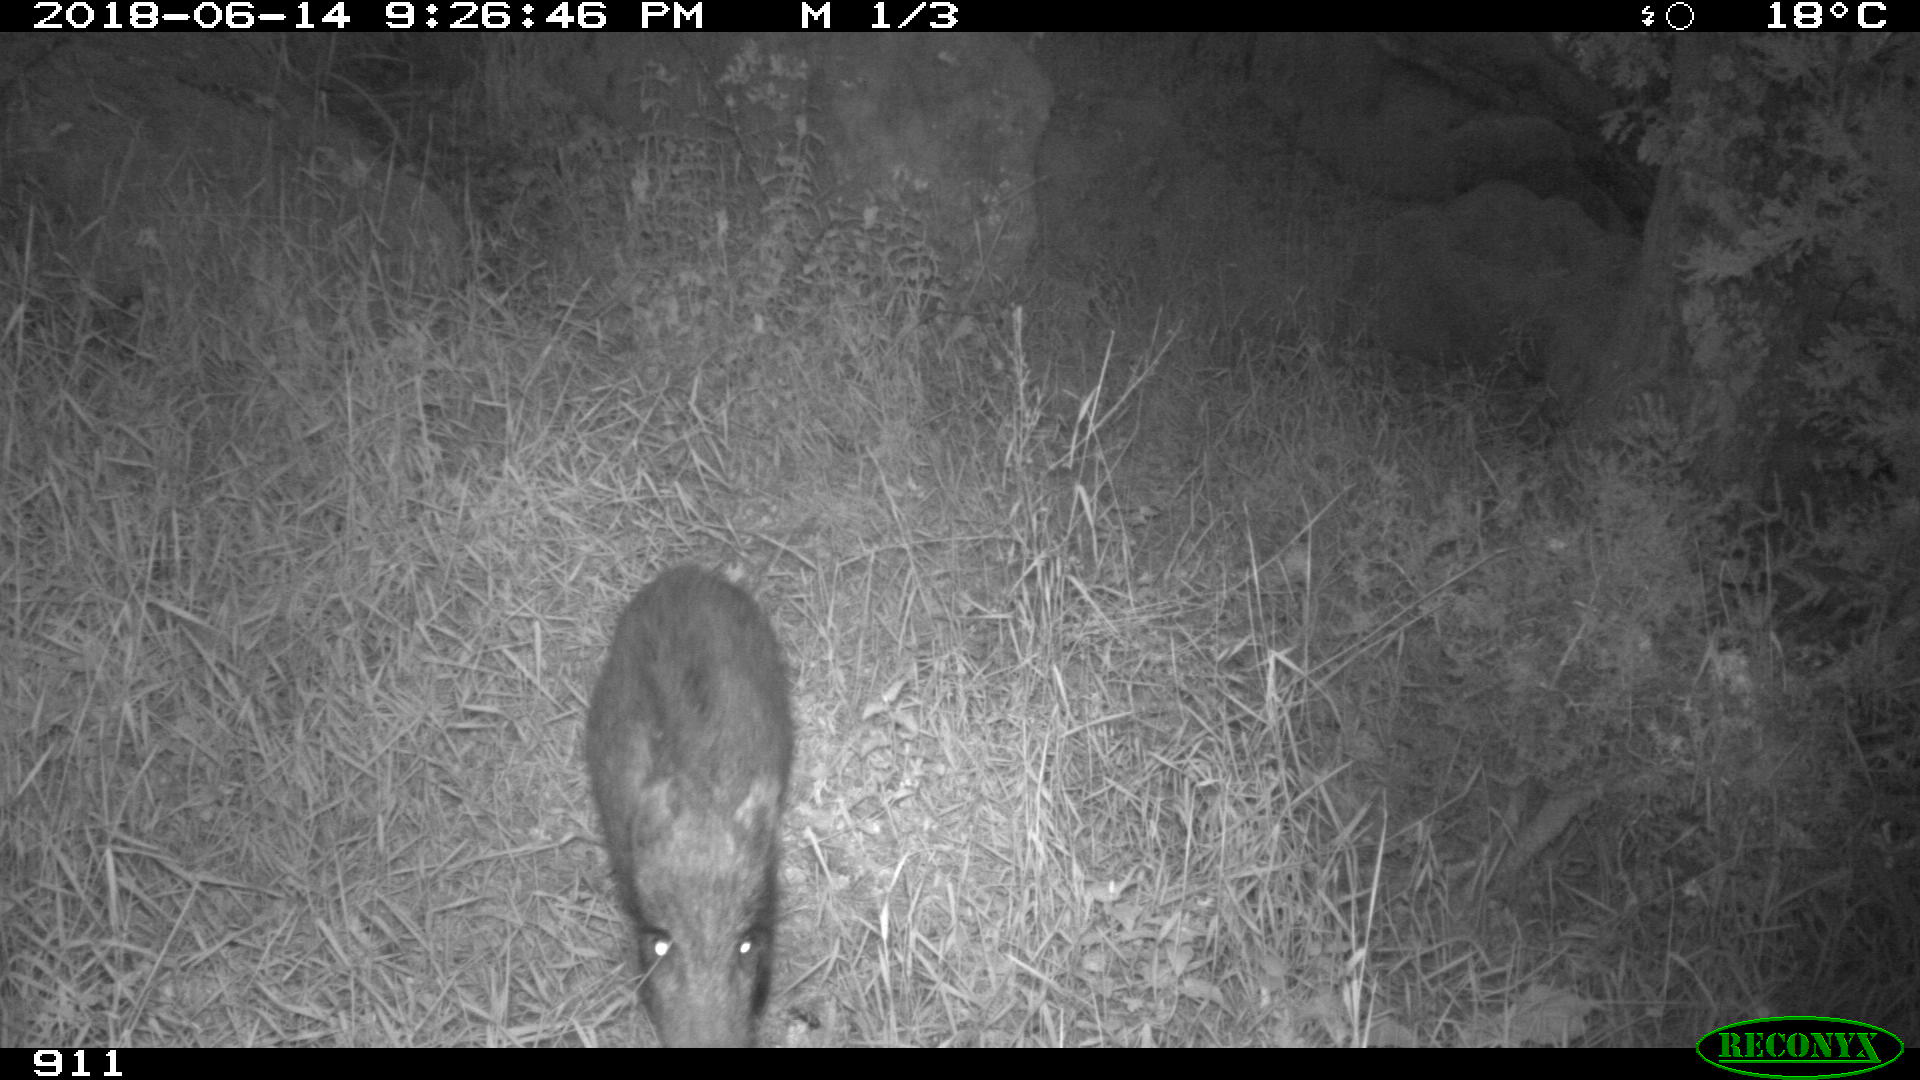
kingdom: Animalia
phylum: Chordata
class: Mammalia
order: Artiodactyla
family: Suidae
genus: Sus
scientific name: Sus scrofa
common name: Wild boar
